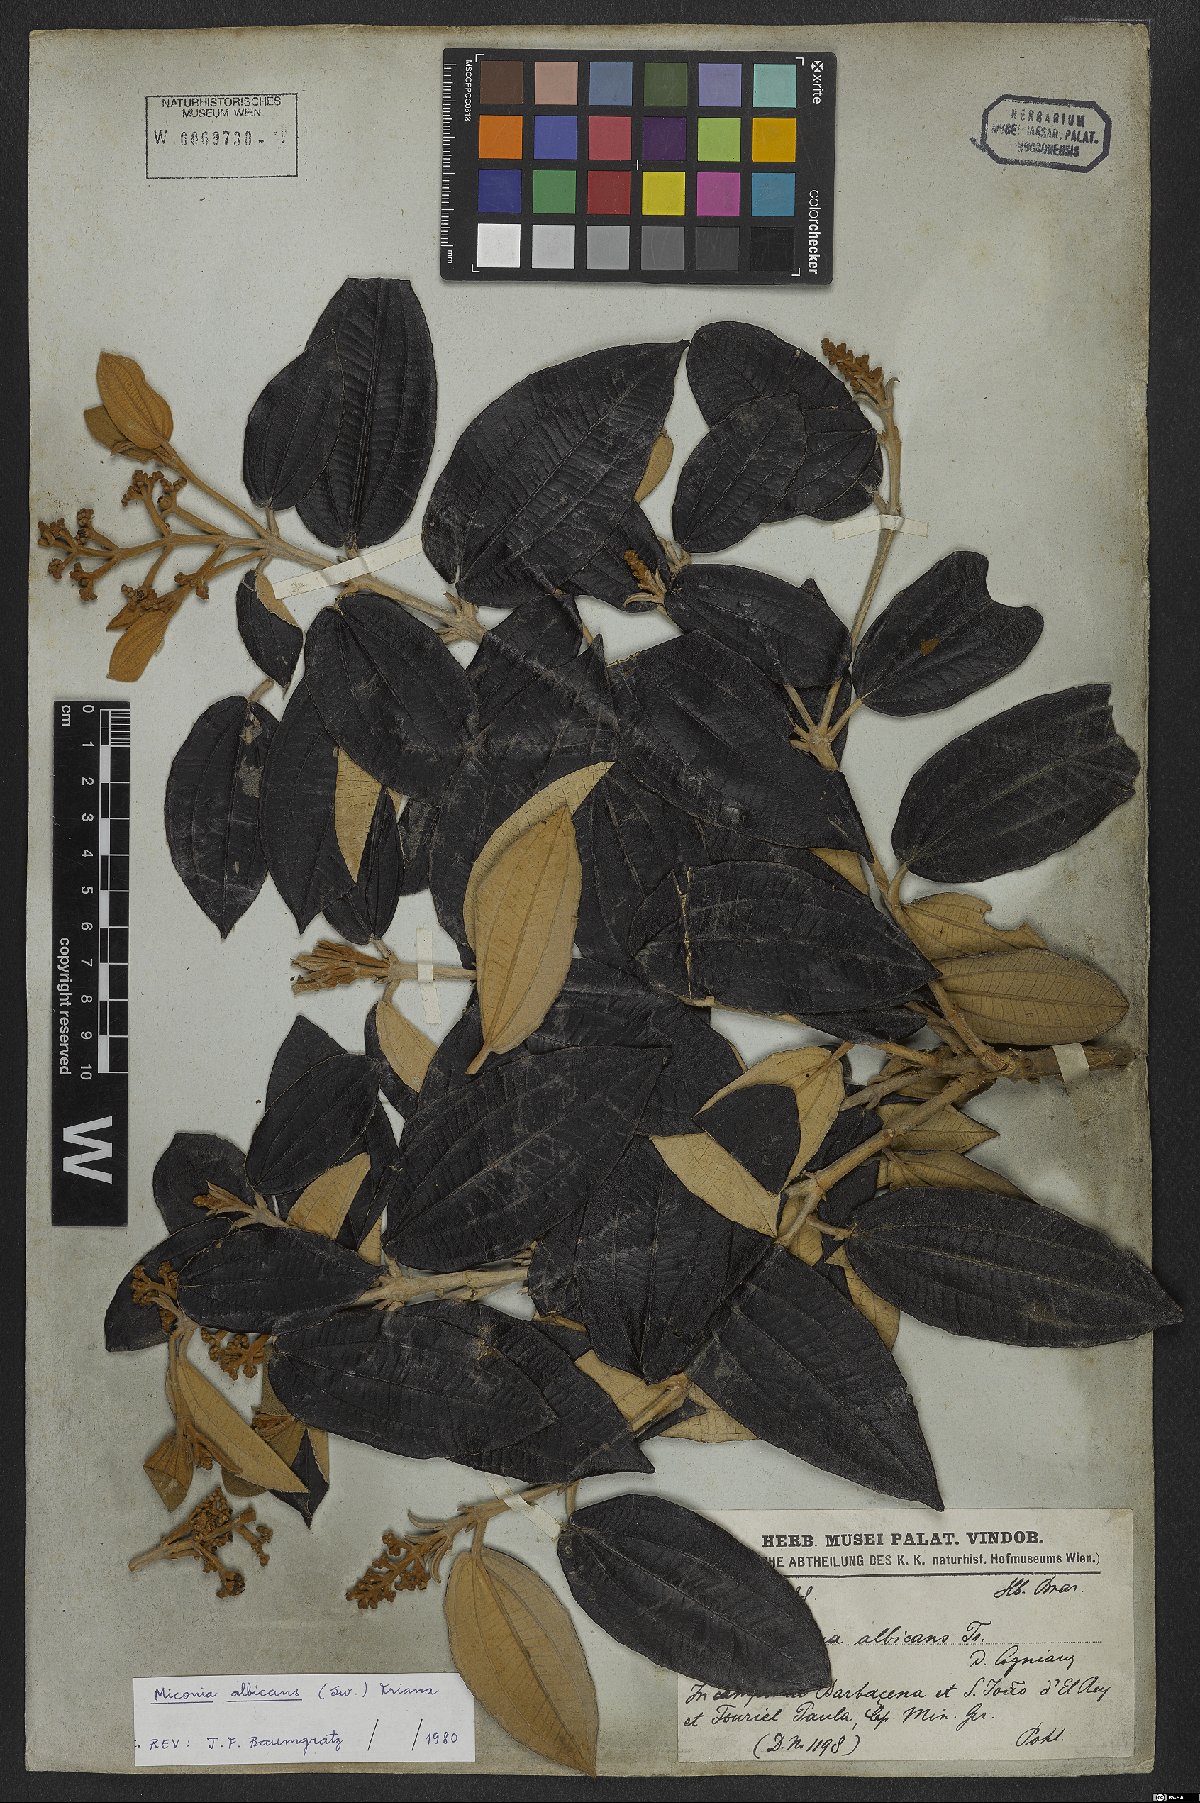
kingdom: Plantae
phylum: Tracheophyta
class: Magnoliopsida
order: Myrtales
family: Melastomataceae
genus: Miconia
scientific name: Miconia albicans
